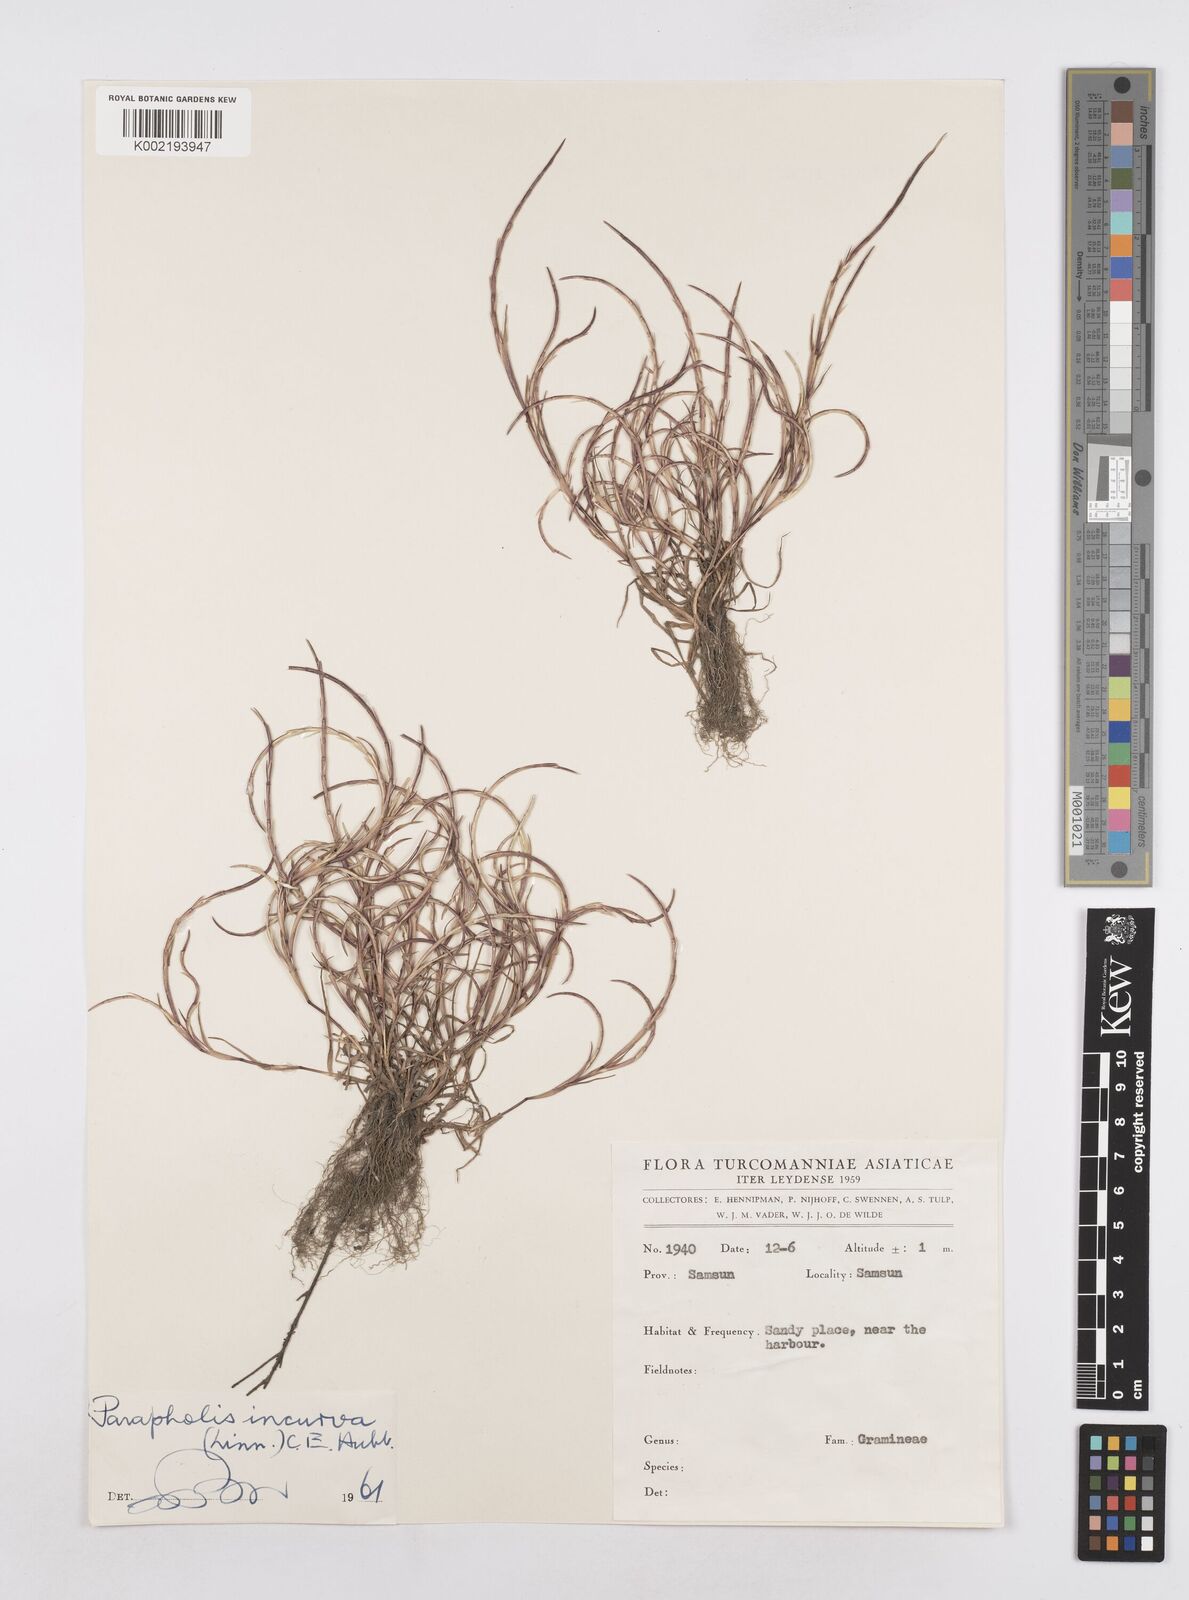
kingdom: Plantae
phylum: Tracheophyta
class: Liliopsida
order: Poales
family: Poaceae
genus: Parapholis
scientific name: Parapholis incurva
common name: Curved sicklegrass
